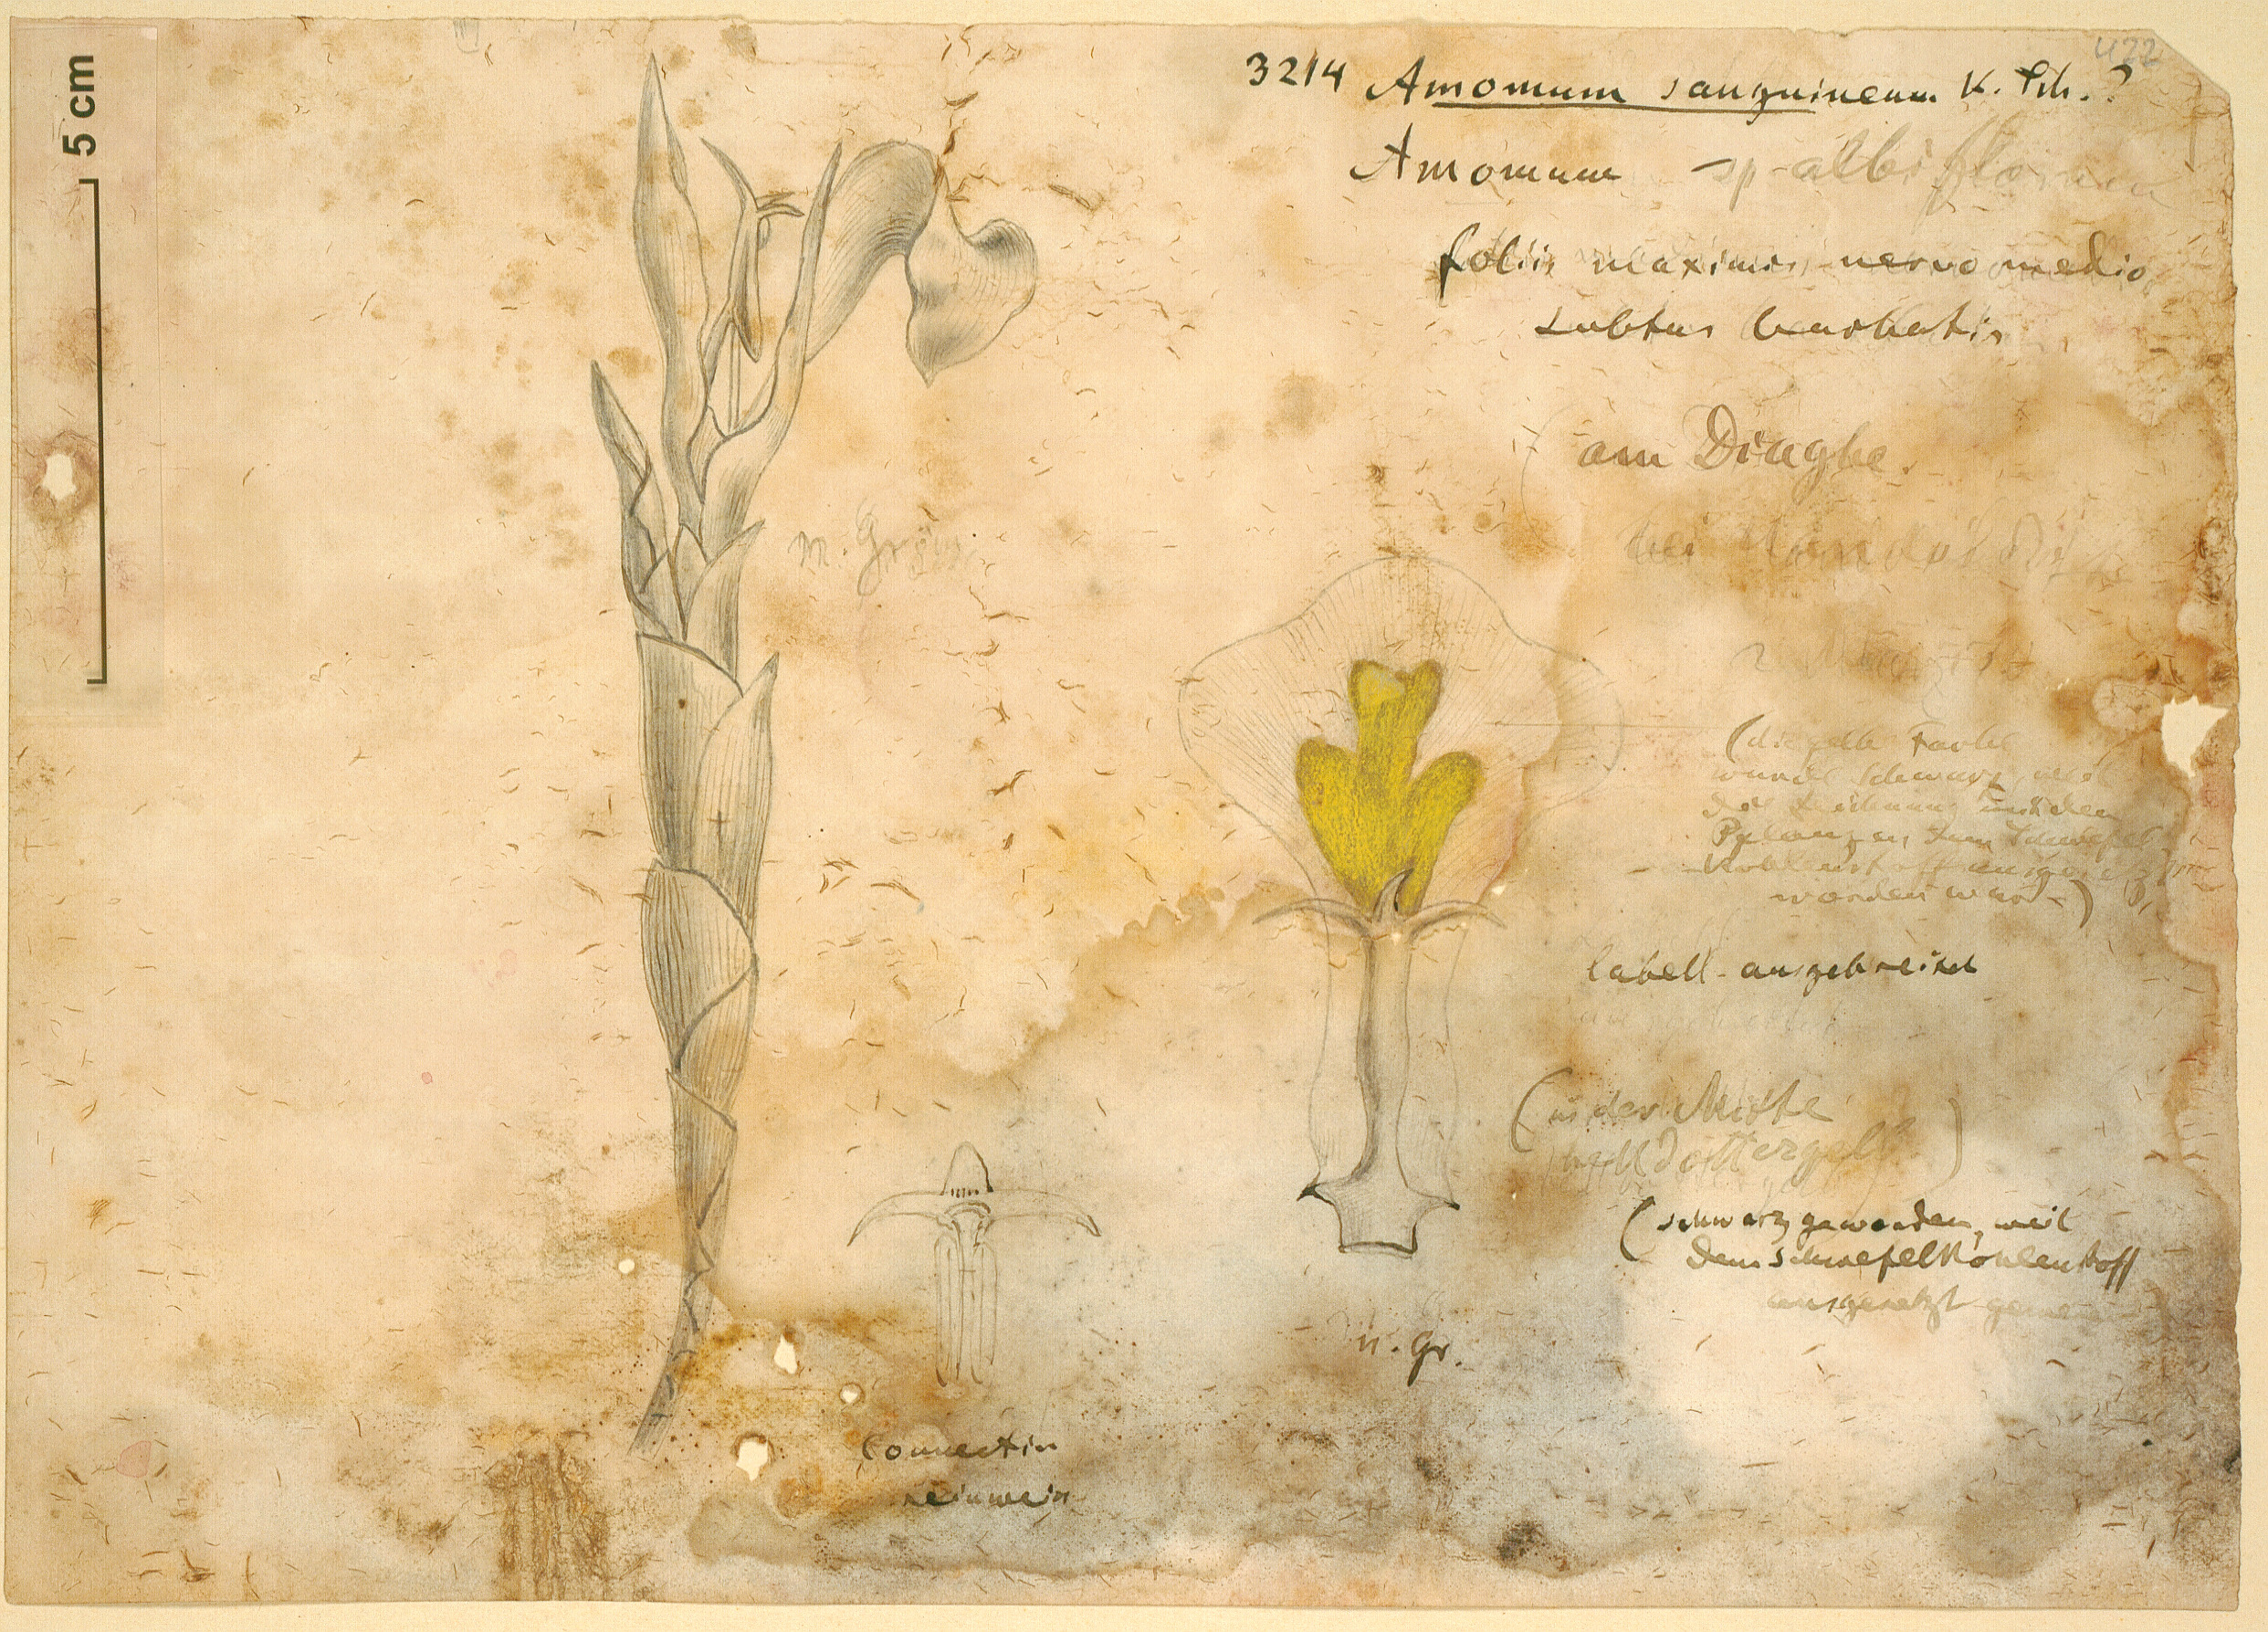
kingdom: Plantae
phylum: Tracheophyta
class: Liliopsida
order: Zingiberales
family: Zingiberaceae
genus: Aframomum
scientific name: Aframomum angustifolium
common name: Guinea grains
